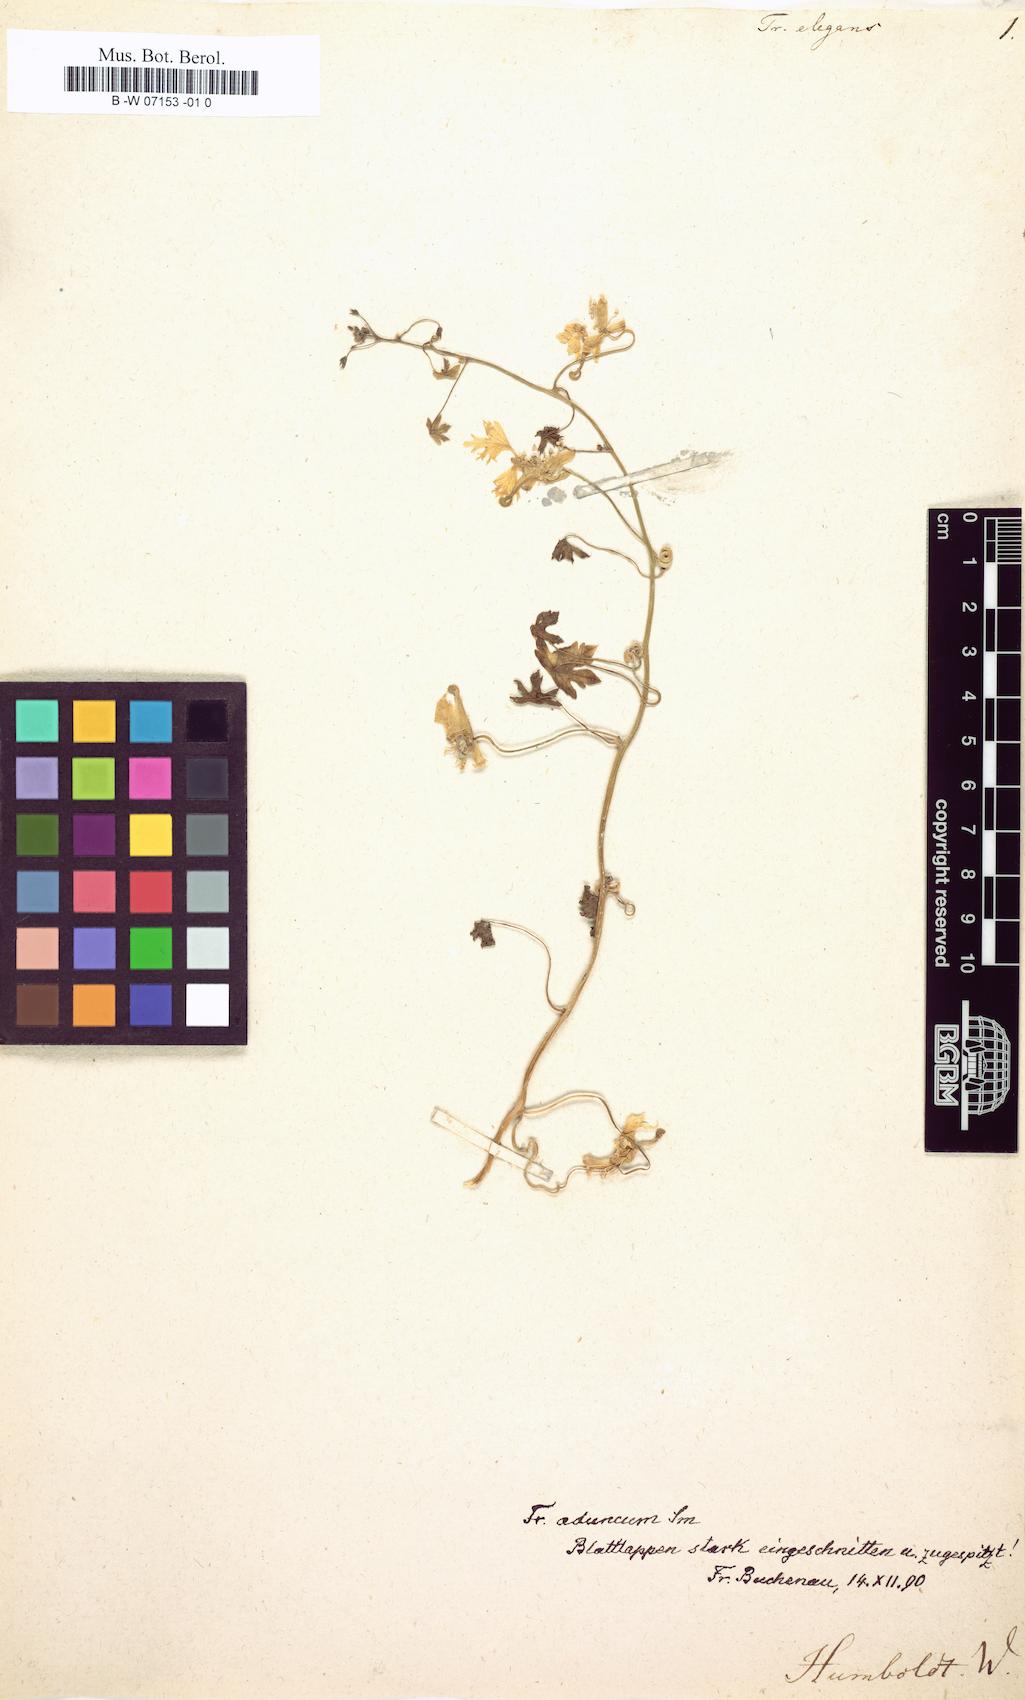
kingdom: Plantae
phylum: Tracheophyta
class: Magnoliopsida
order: Brassicales
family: Tropaeolaceae
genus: Tropaeolum
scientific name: Tropaeolum tricolor
